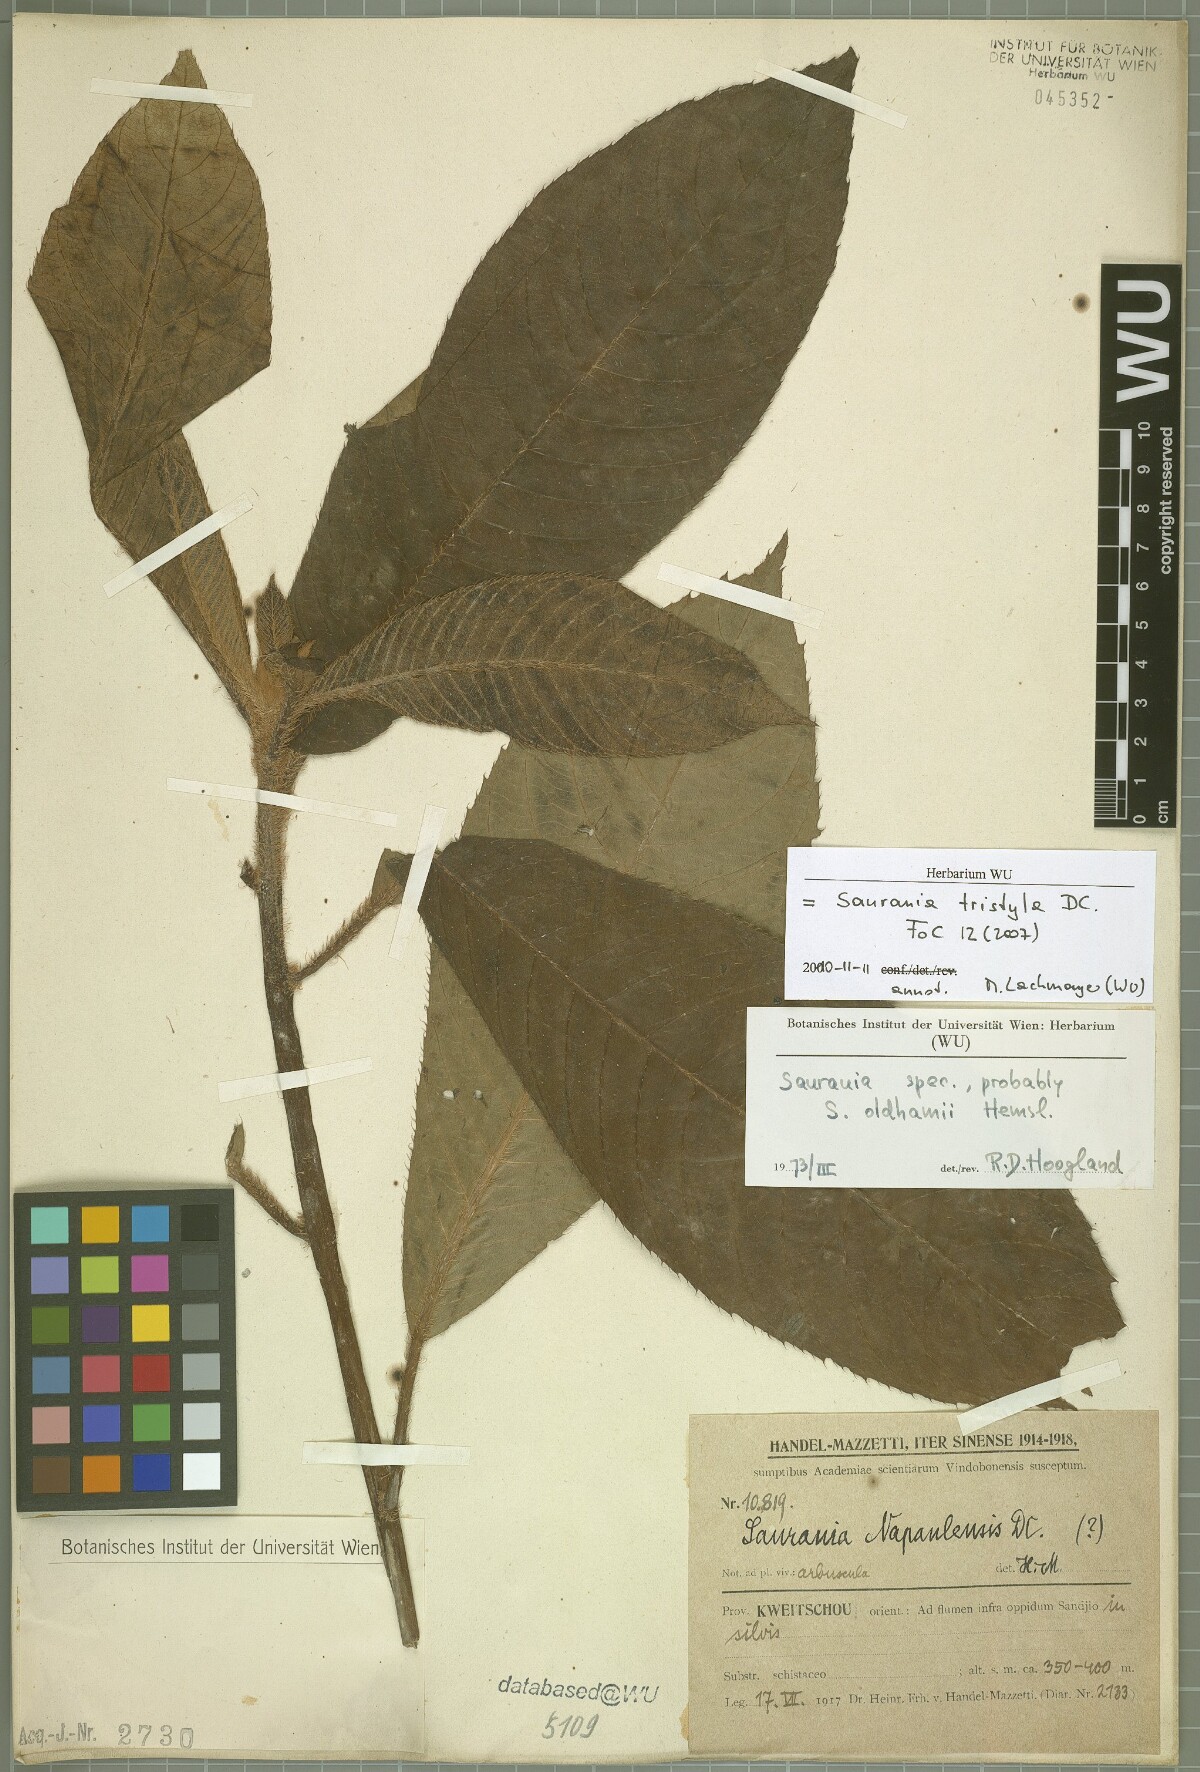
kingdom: Plantae
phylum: Tracheophyta
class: Magnoliopsida
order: Ericales
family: Actinidiaceae
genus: Saurauia
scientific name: Saurauia tristyla
